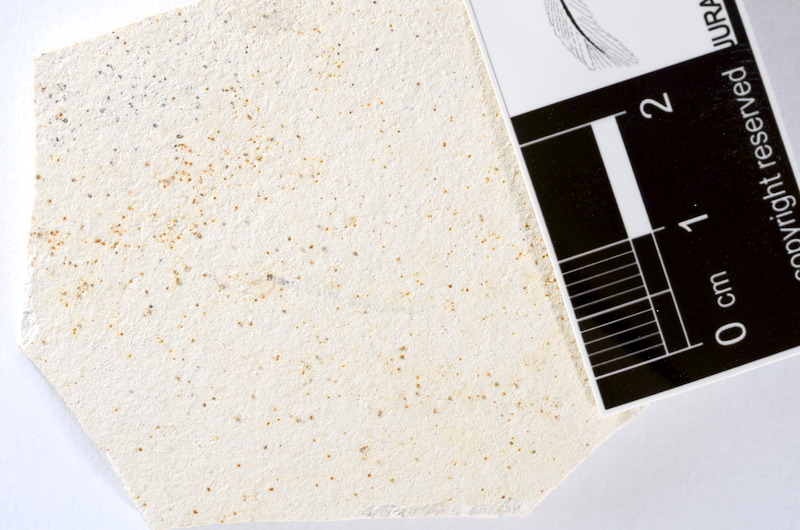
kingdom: Animalia
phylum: Chordata
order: Salmoniformes
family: Orthogonikleithridae
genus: Orthogonikleithrus
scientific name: Orthogonikleithrus hoelli
